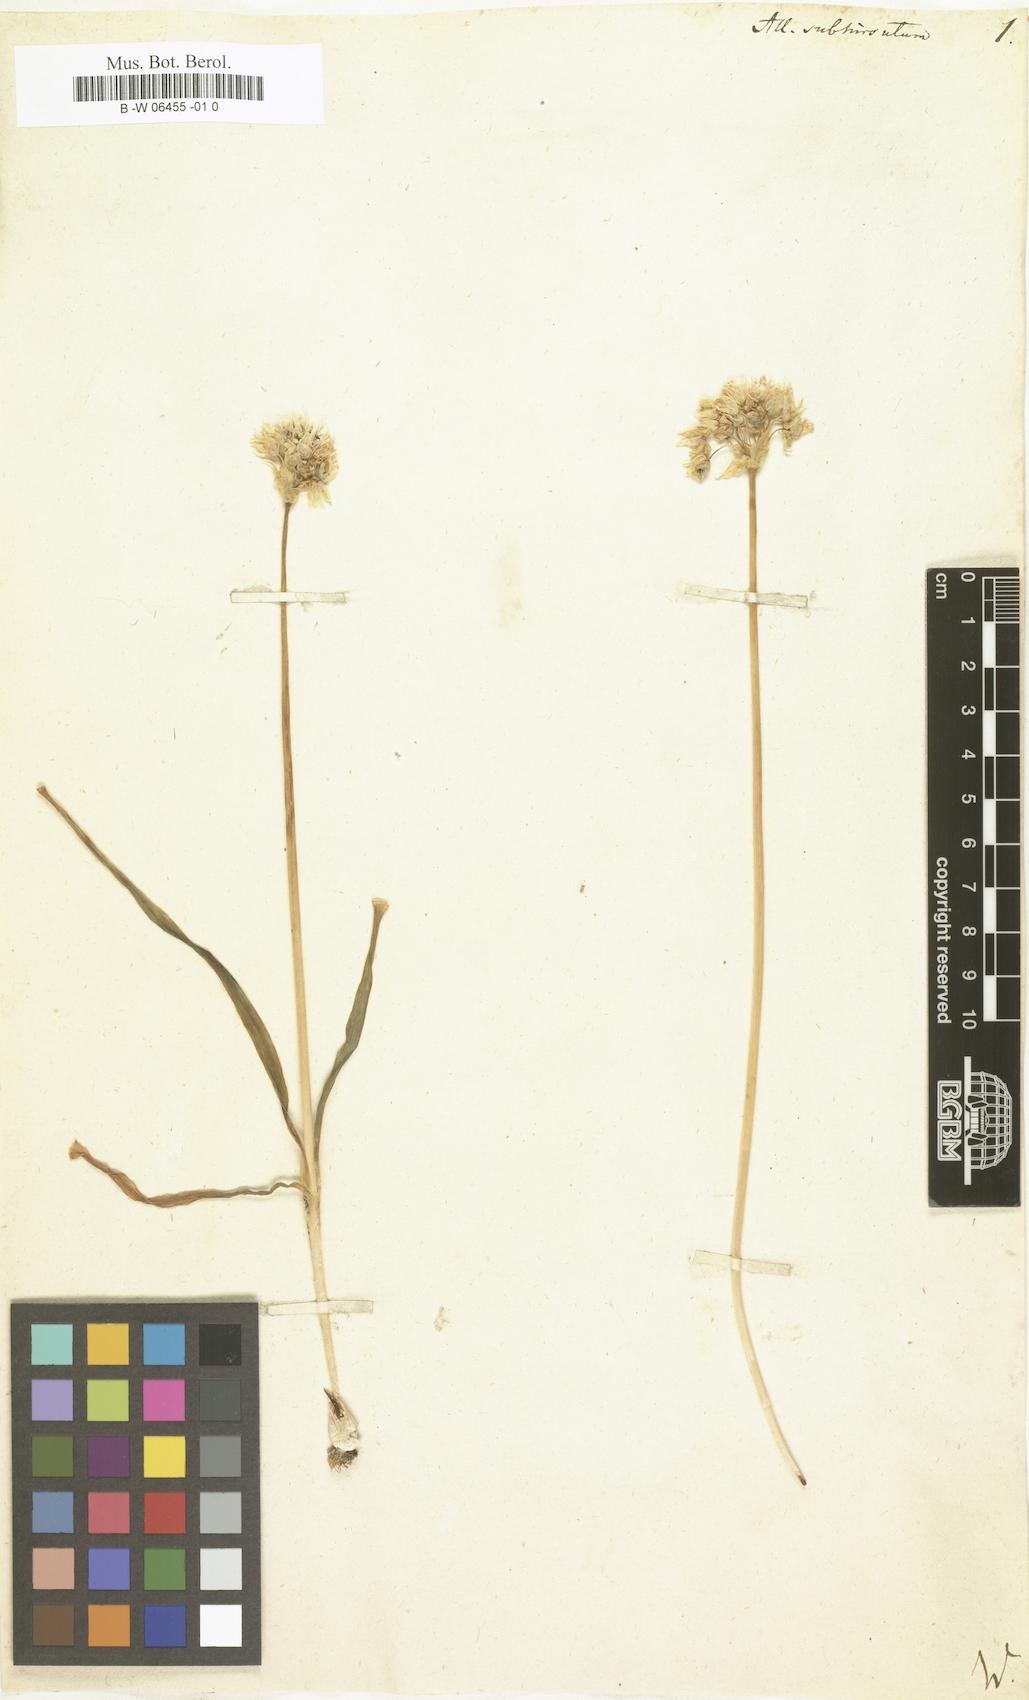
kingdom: Plantae
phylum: Tracheophyta
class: Liliopsida
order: Asparagales
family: Amaryllidaceae
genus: Allium
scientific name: Allium subhirsutum
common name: Hairy garlic
